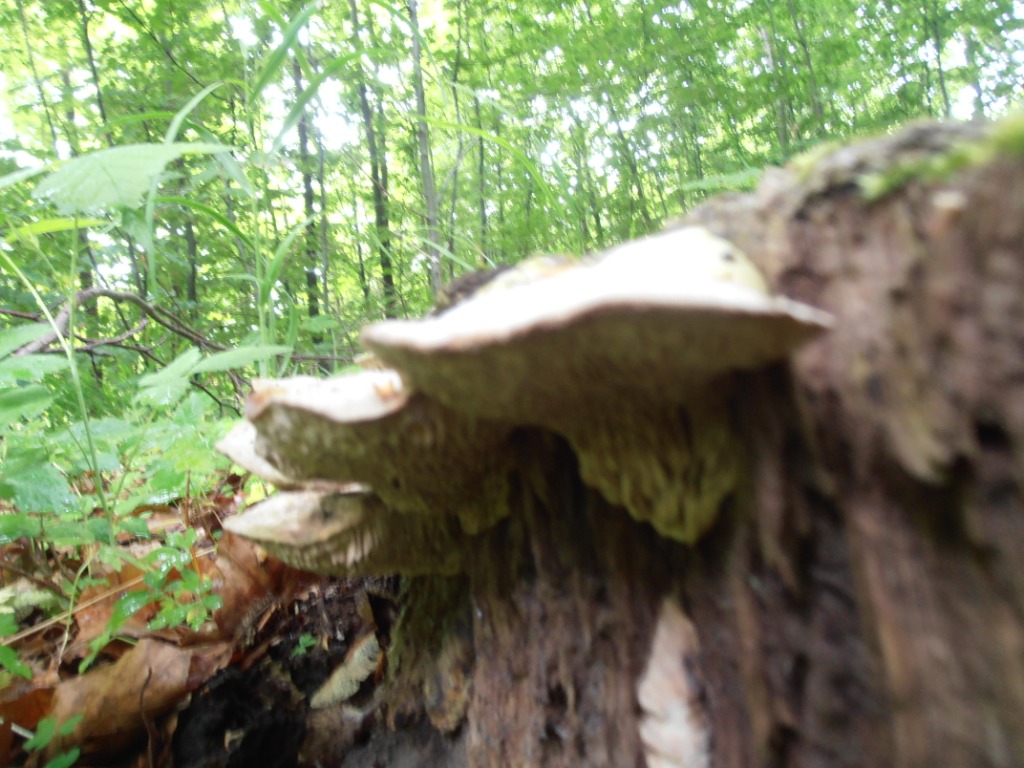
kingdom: Fungi
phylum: Basidiomycota
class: Agaricomycetes
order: Polyporales
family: Fomitopsidaceae
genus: Daedalea
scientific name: Daedalea quercina
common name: ege-labyrintsvamp
